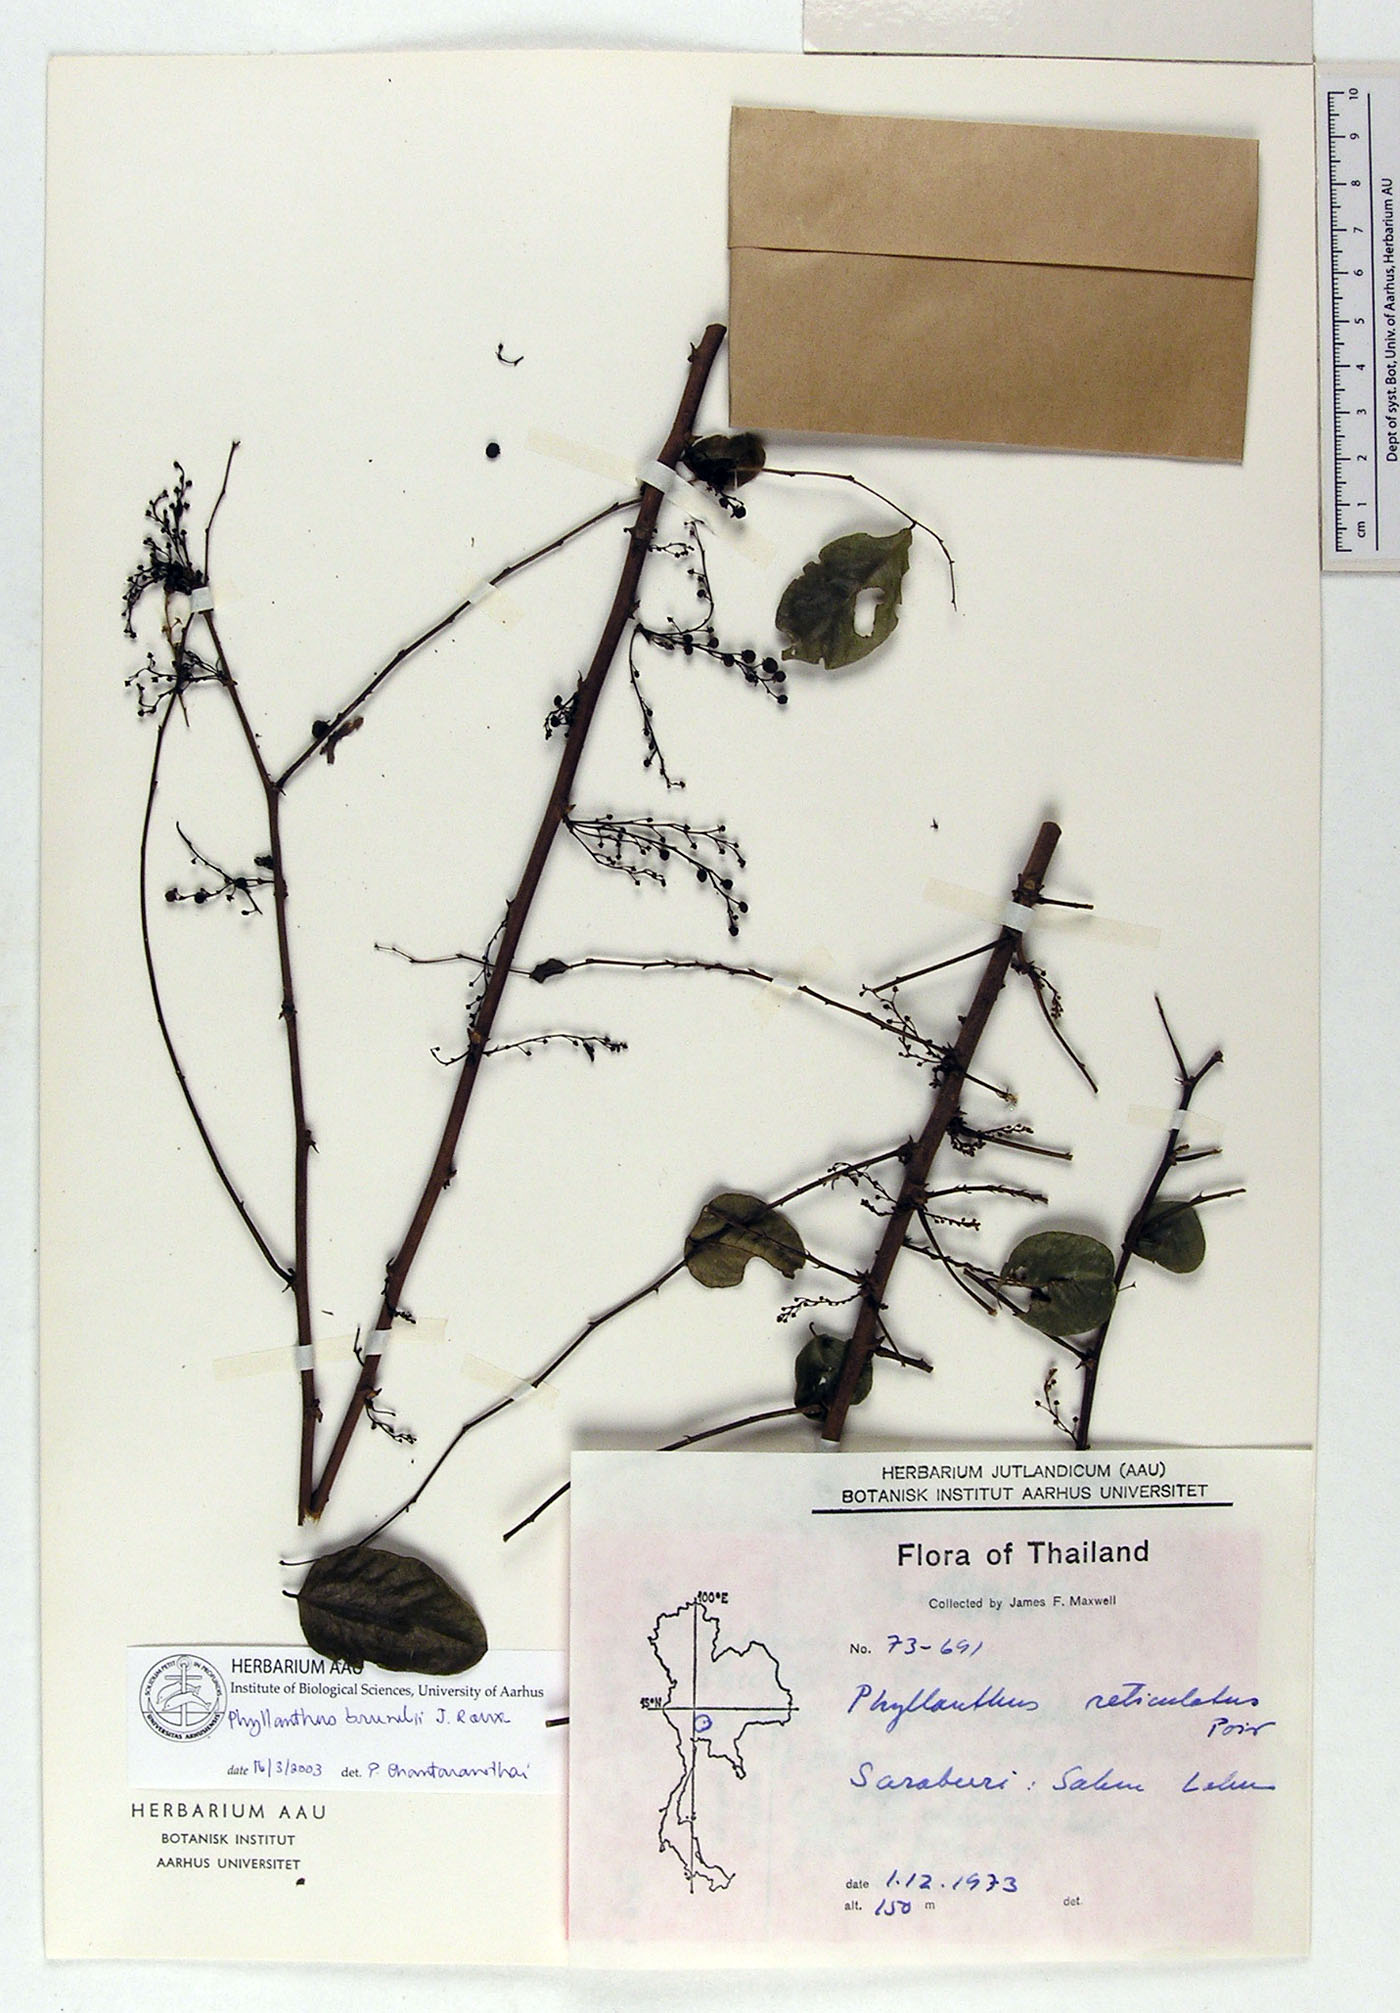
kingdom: Plantae
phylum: Tracheophyta
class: Magnoliopsida
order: Malpighiales
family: Phyllanthaceae
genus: Phyllanthus
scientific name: Phyllanthus microcarpus
